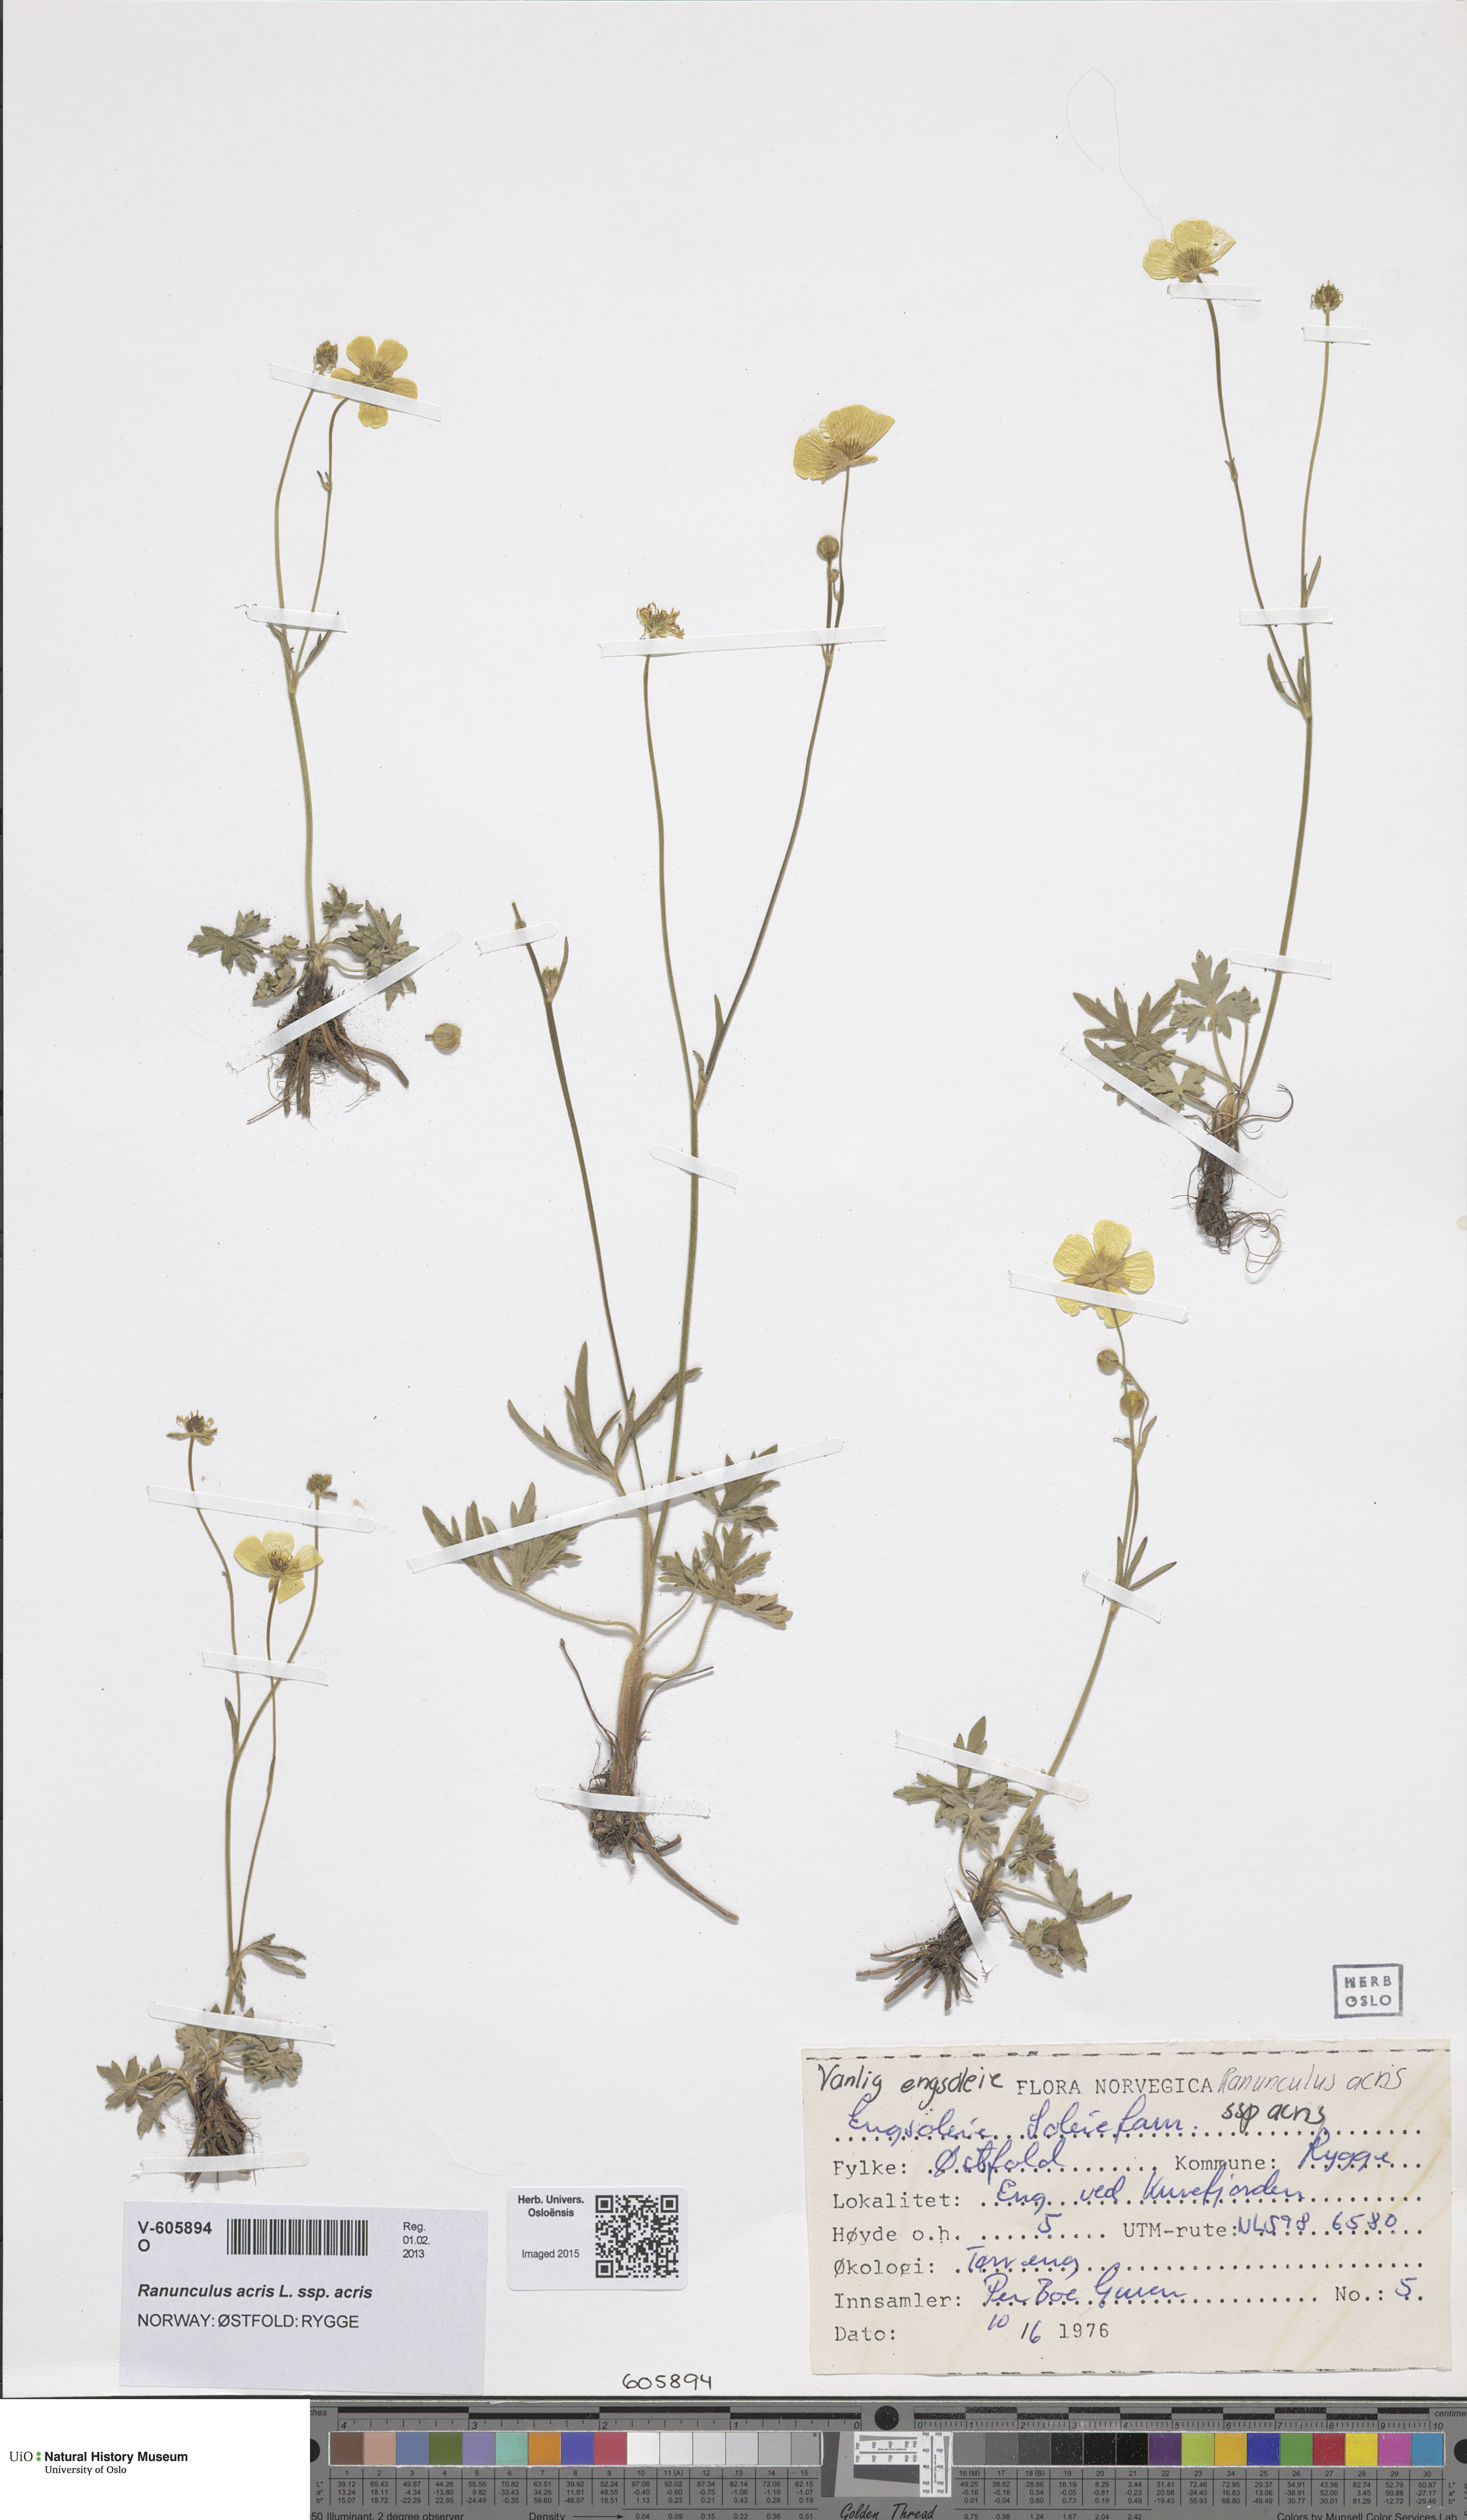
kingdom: Plantae
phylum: Tracheophyta
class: Magnoliopsida
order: Ranunculales
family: Ranunculaceae
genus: Ranunculus
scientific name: Ranunculus acris
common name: Meadow buttercup
